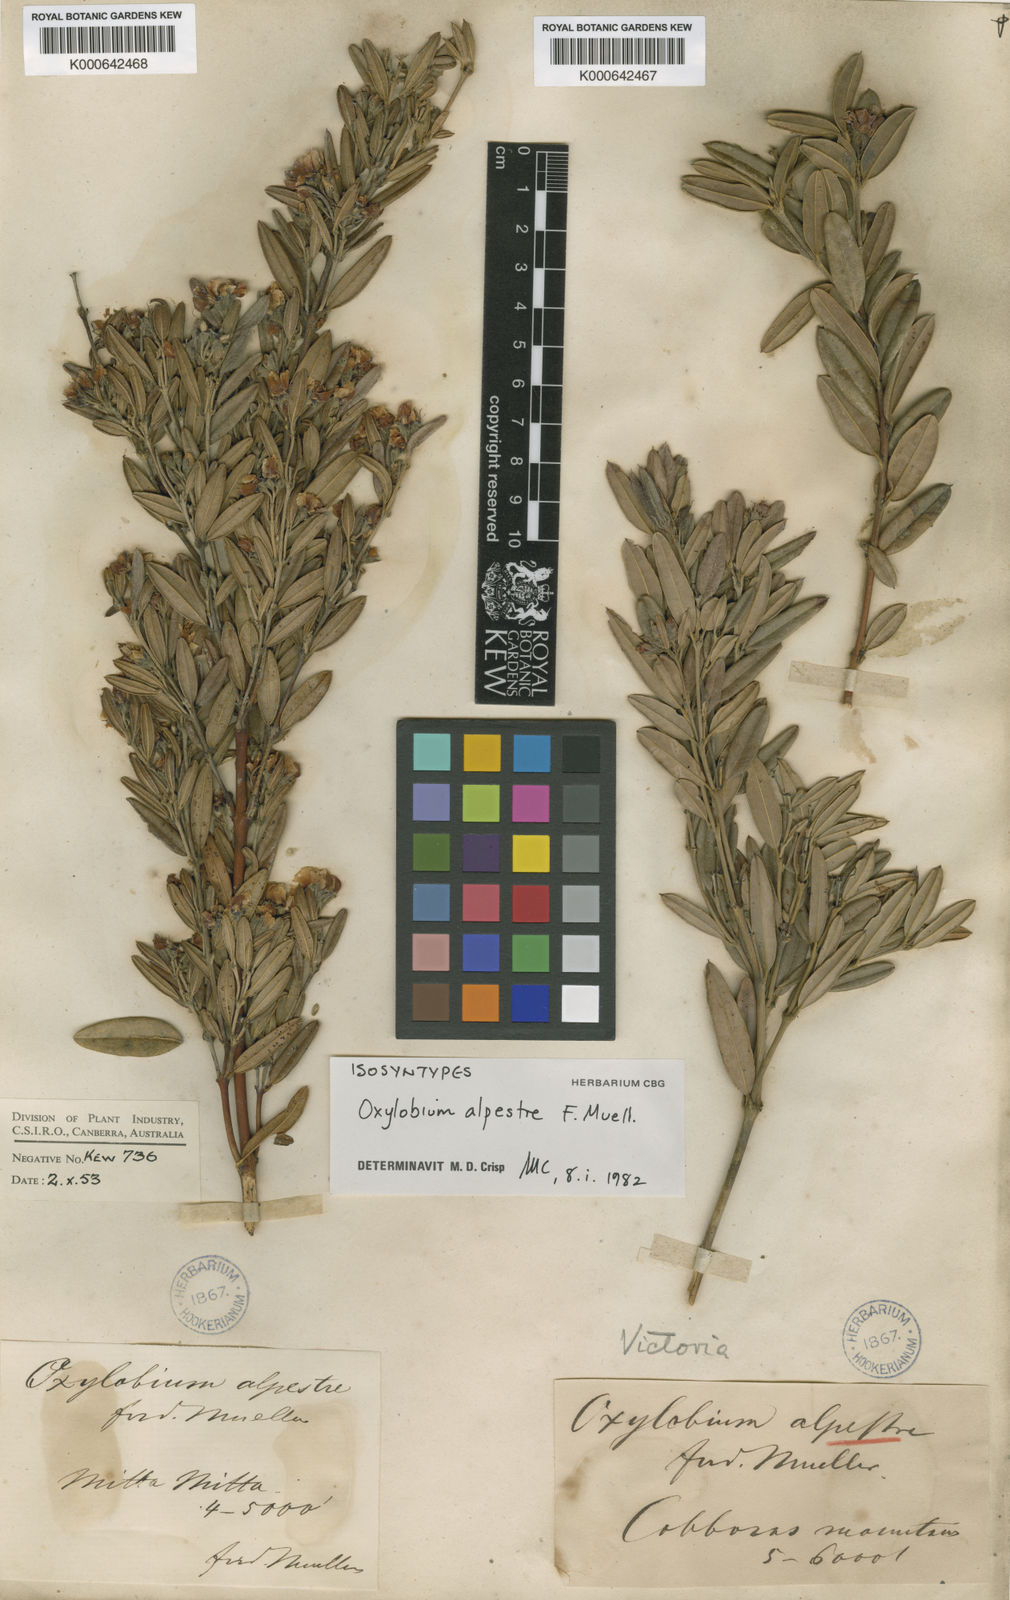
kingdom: Plantae
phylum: Tracheophyta
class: Magnoliopsida
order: Fabales
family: Fabaceae
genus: Podolobium
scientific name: Podolobium alpestre
